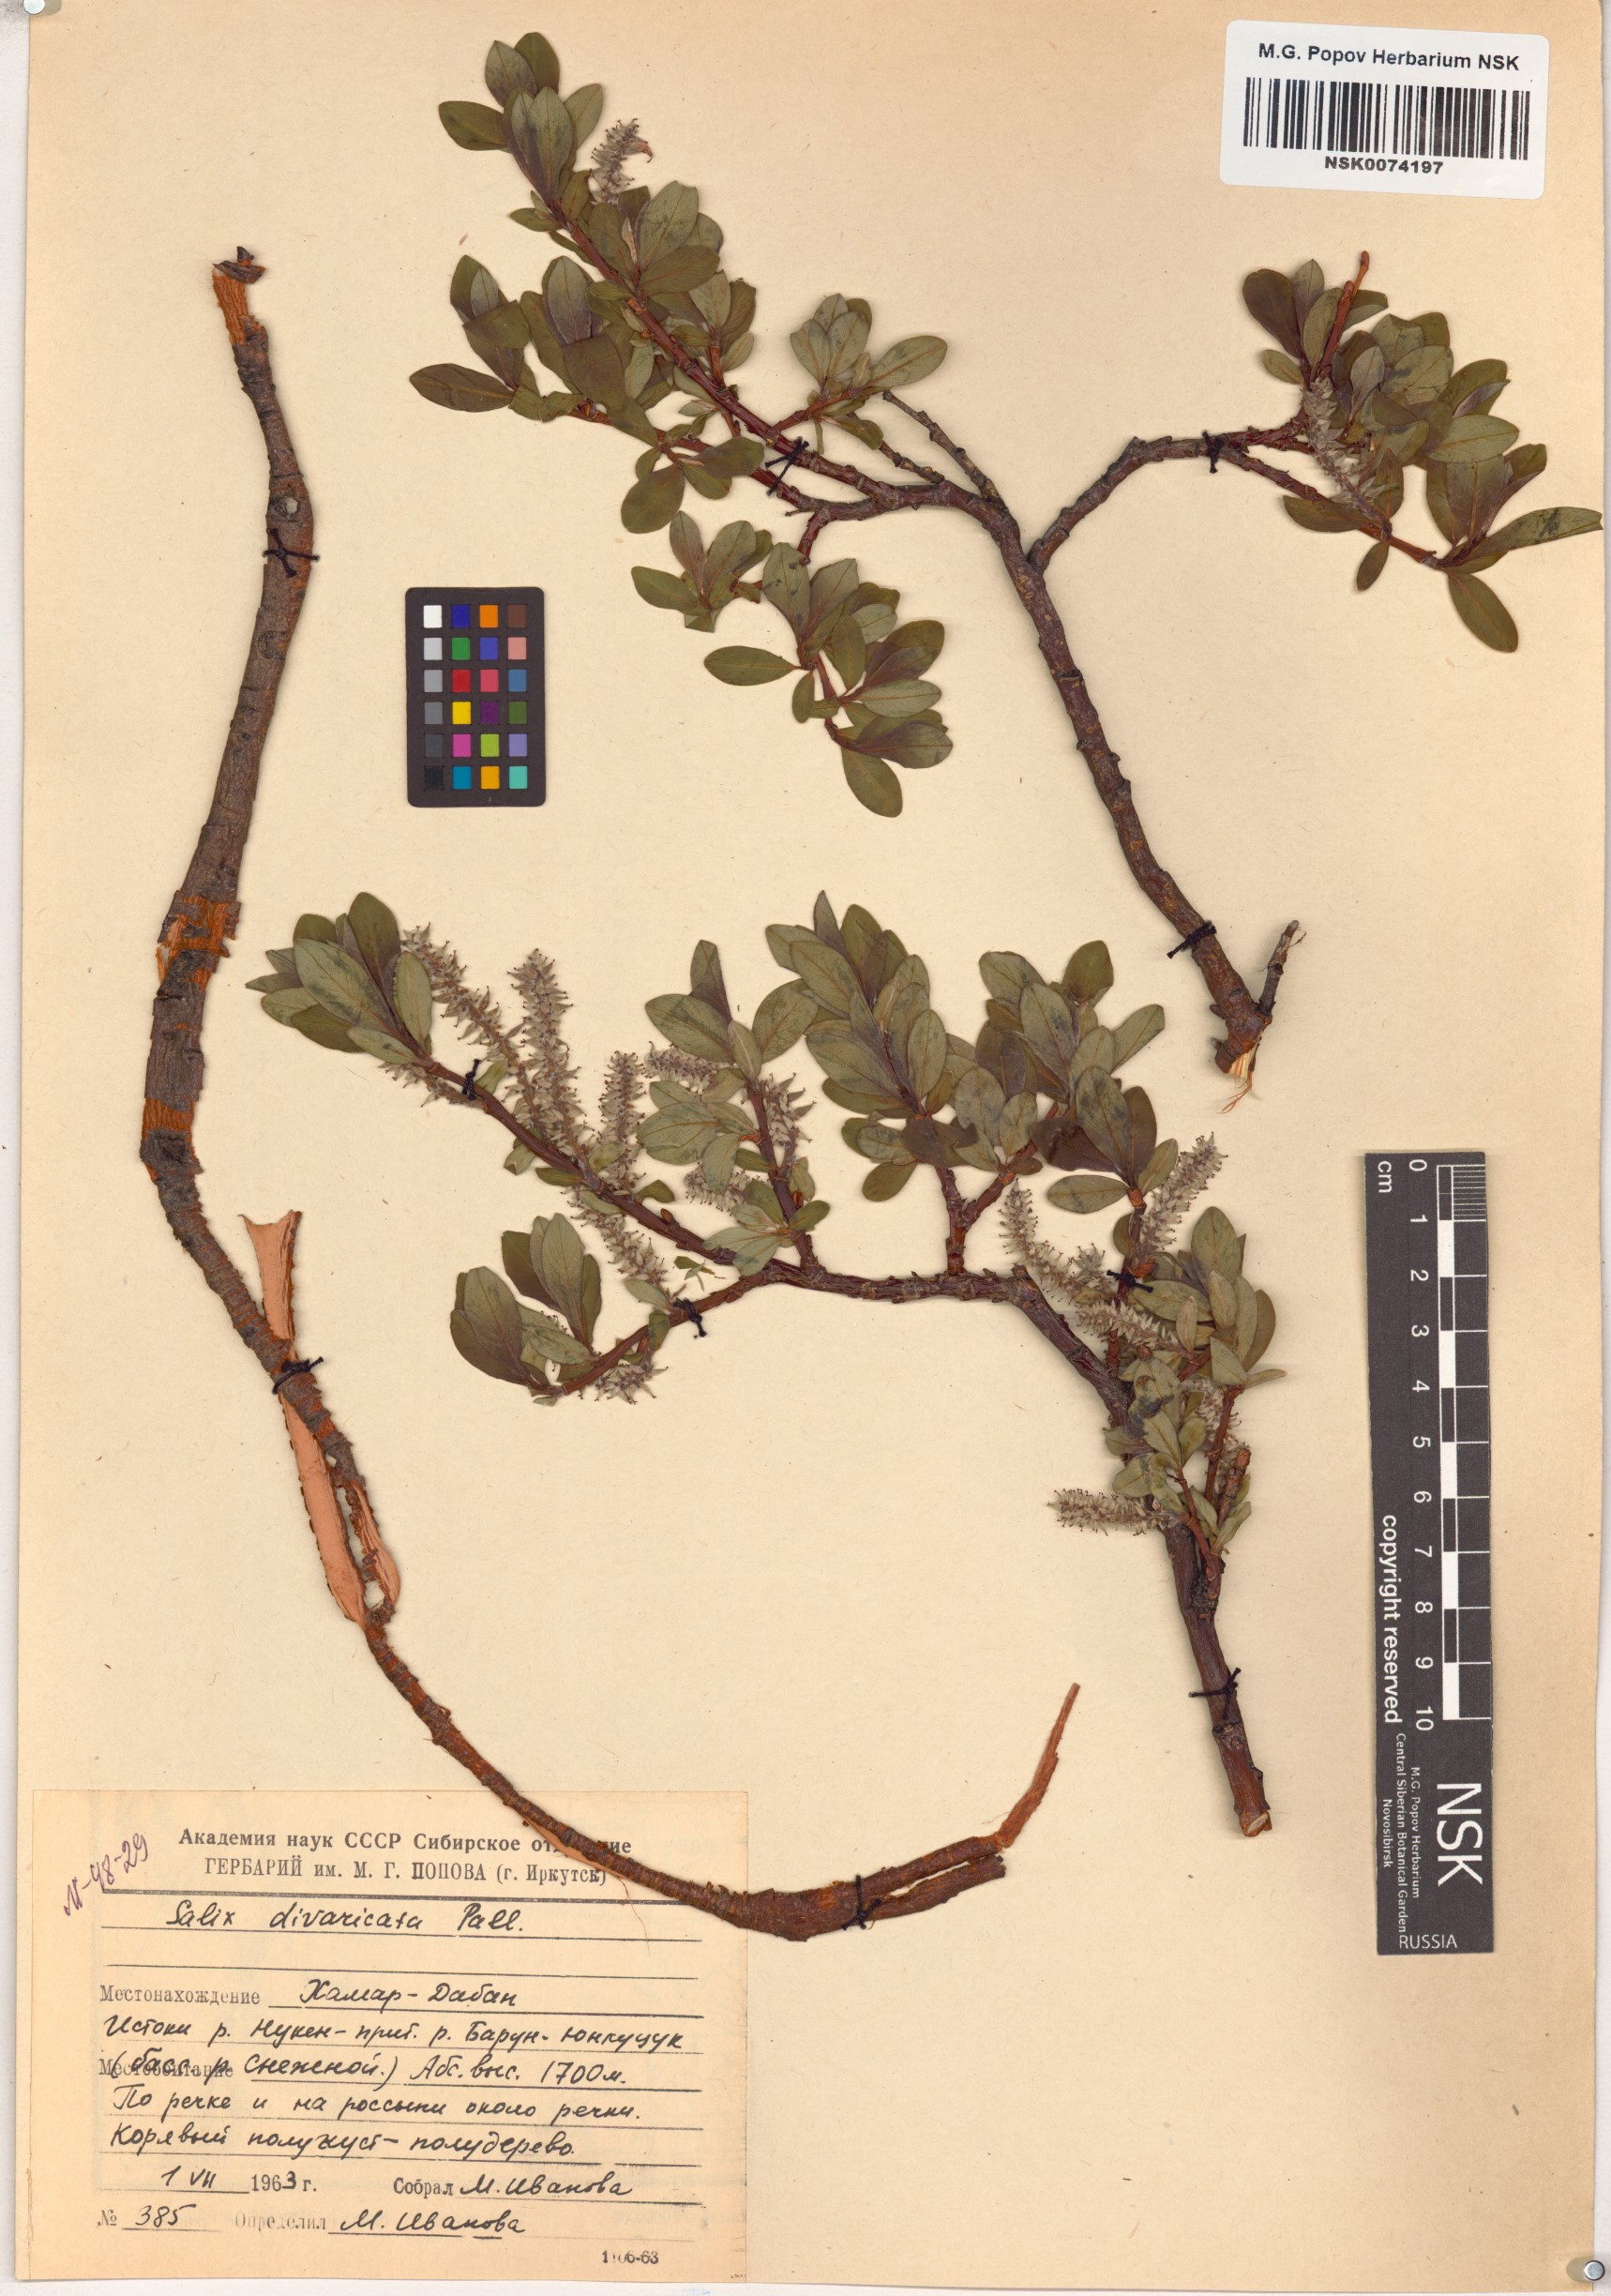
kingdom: Plantae
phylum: Tracheophyta
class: Magnoliopsida
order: Malpighiales
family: Salicaceae
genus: Salix
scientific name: Salix divaricata
